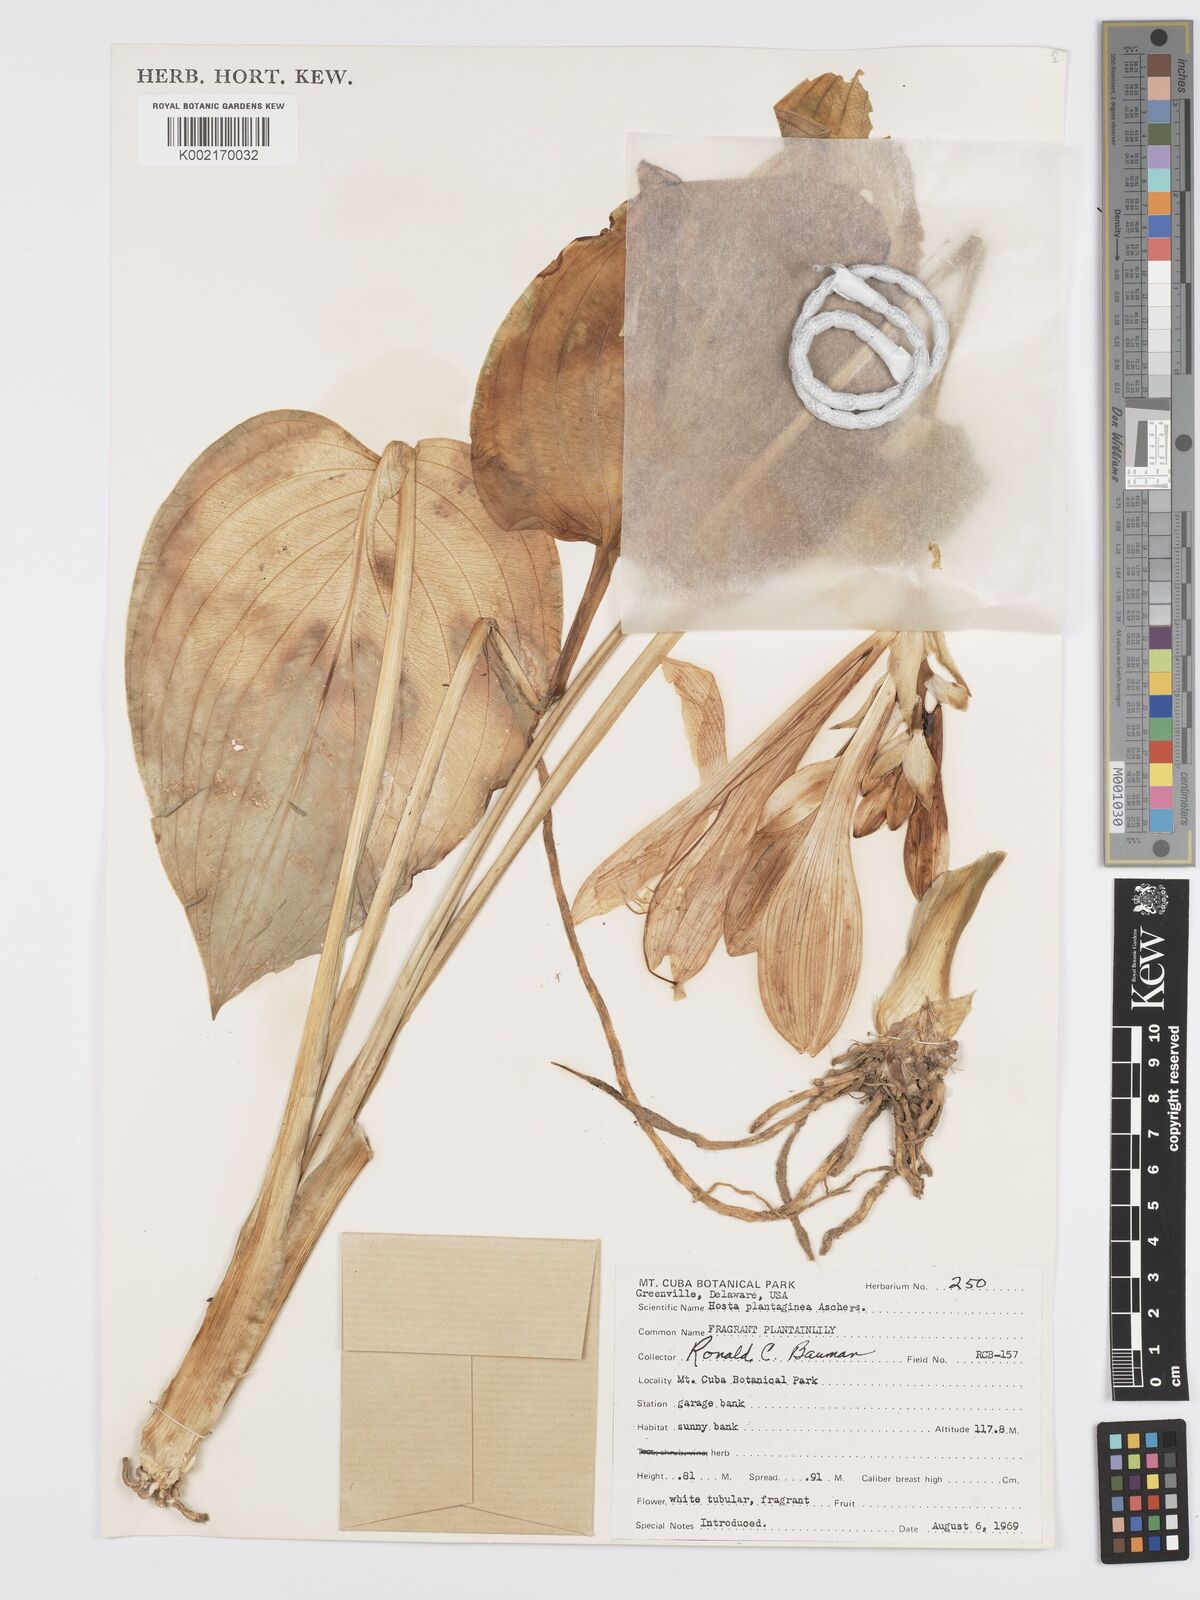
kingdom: Plantae
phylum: Tracheophyta
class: Liliopsida
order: Asparagales
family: Asparagaceae
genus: Hosta
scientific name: Hosta plantaginea
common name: August-lily
